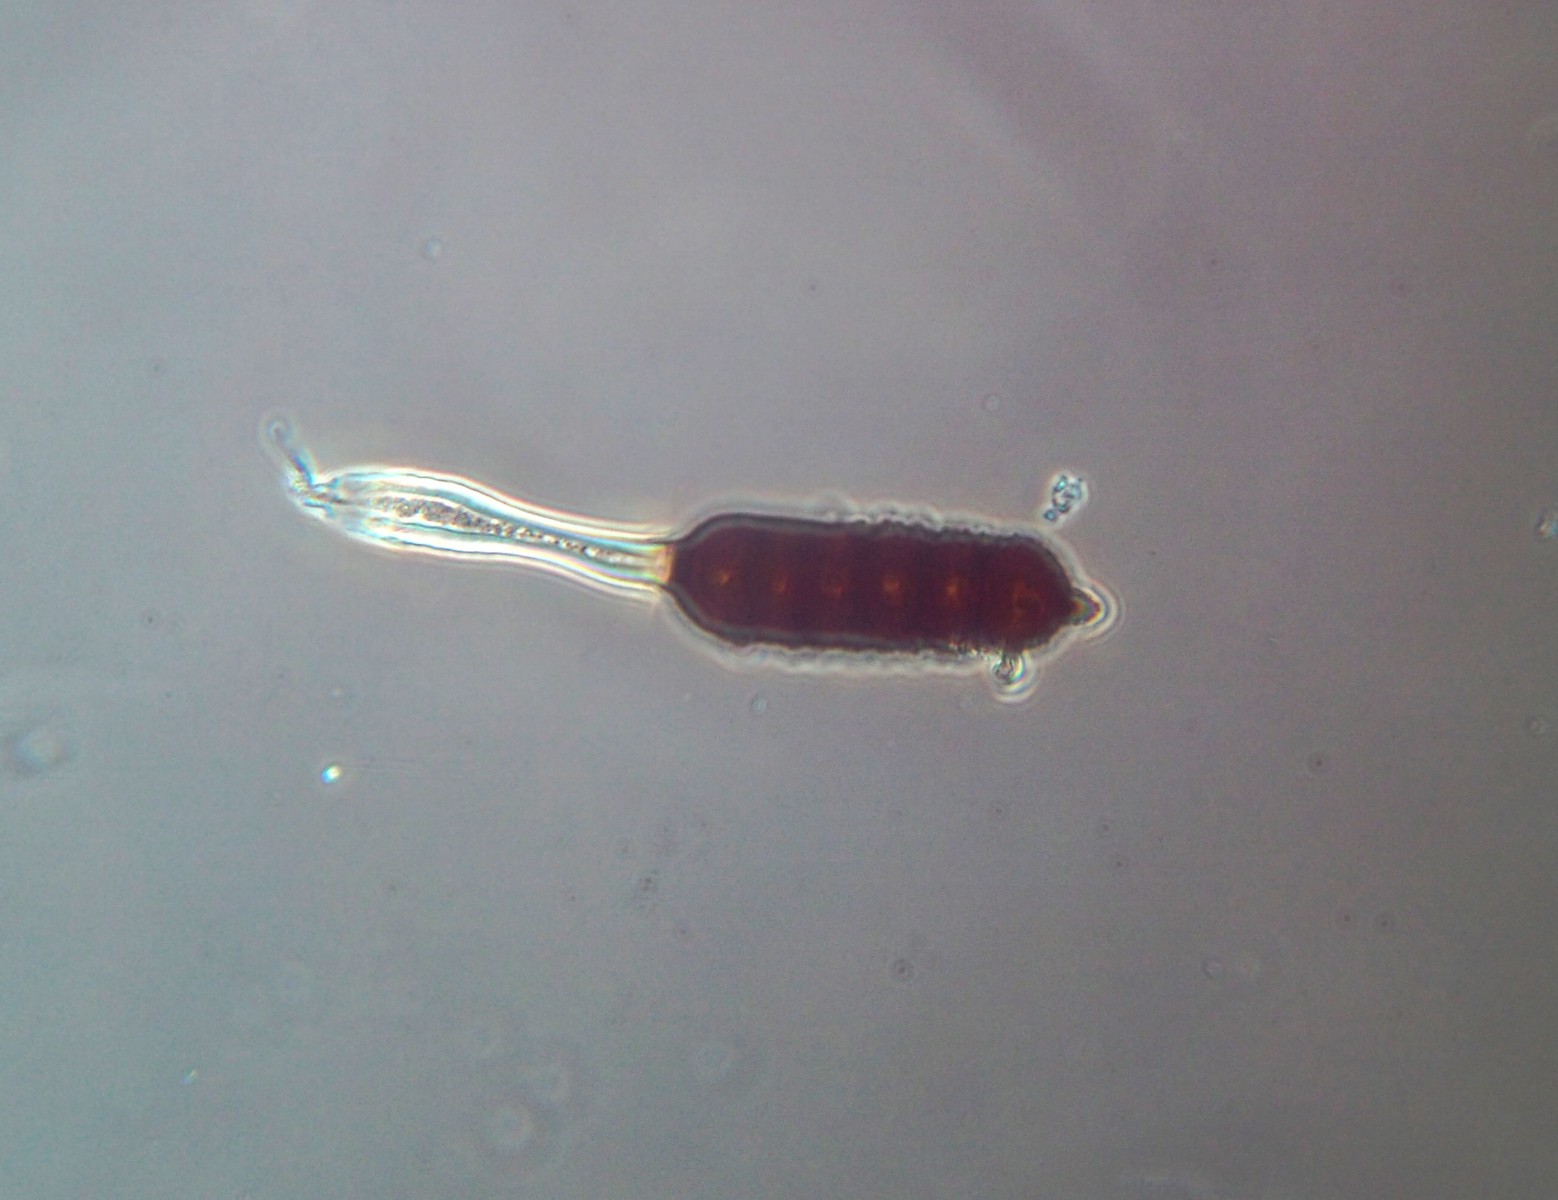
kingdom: Fungi
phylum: Basidiomycota
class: Pucciniomycetes
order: Pucciniales
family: Phragmidiaceae
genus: Phragmidium
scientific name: Phragmidium bulbosum
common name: brombær-flercellerust
